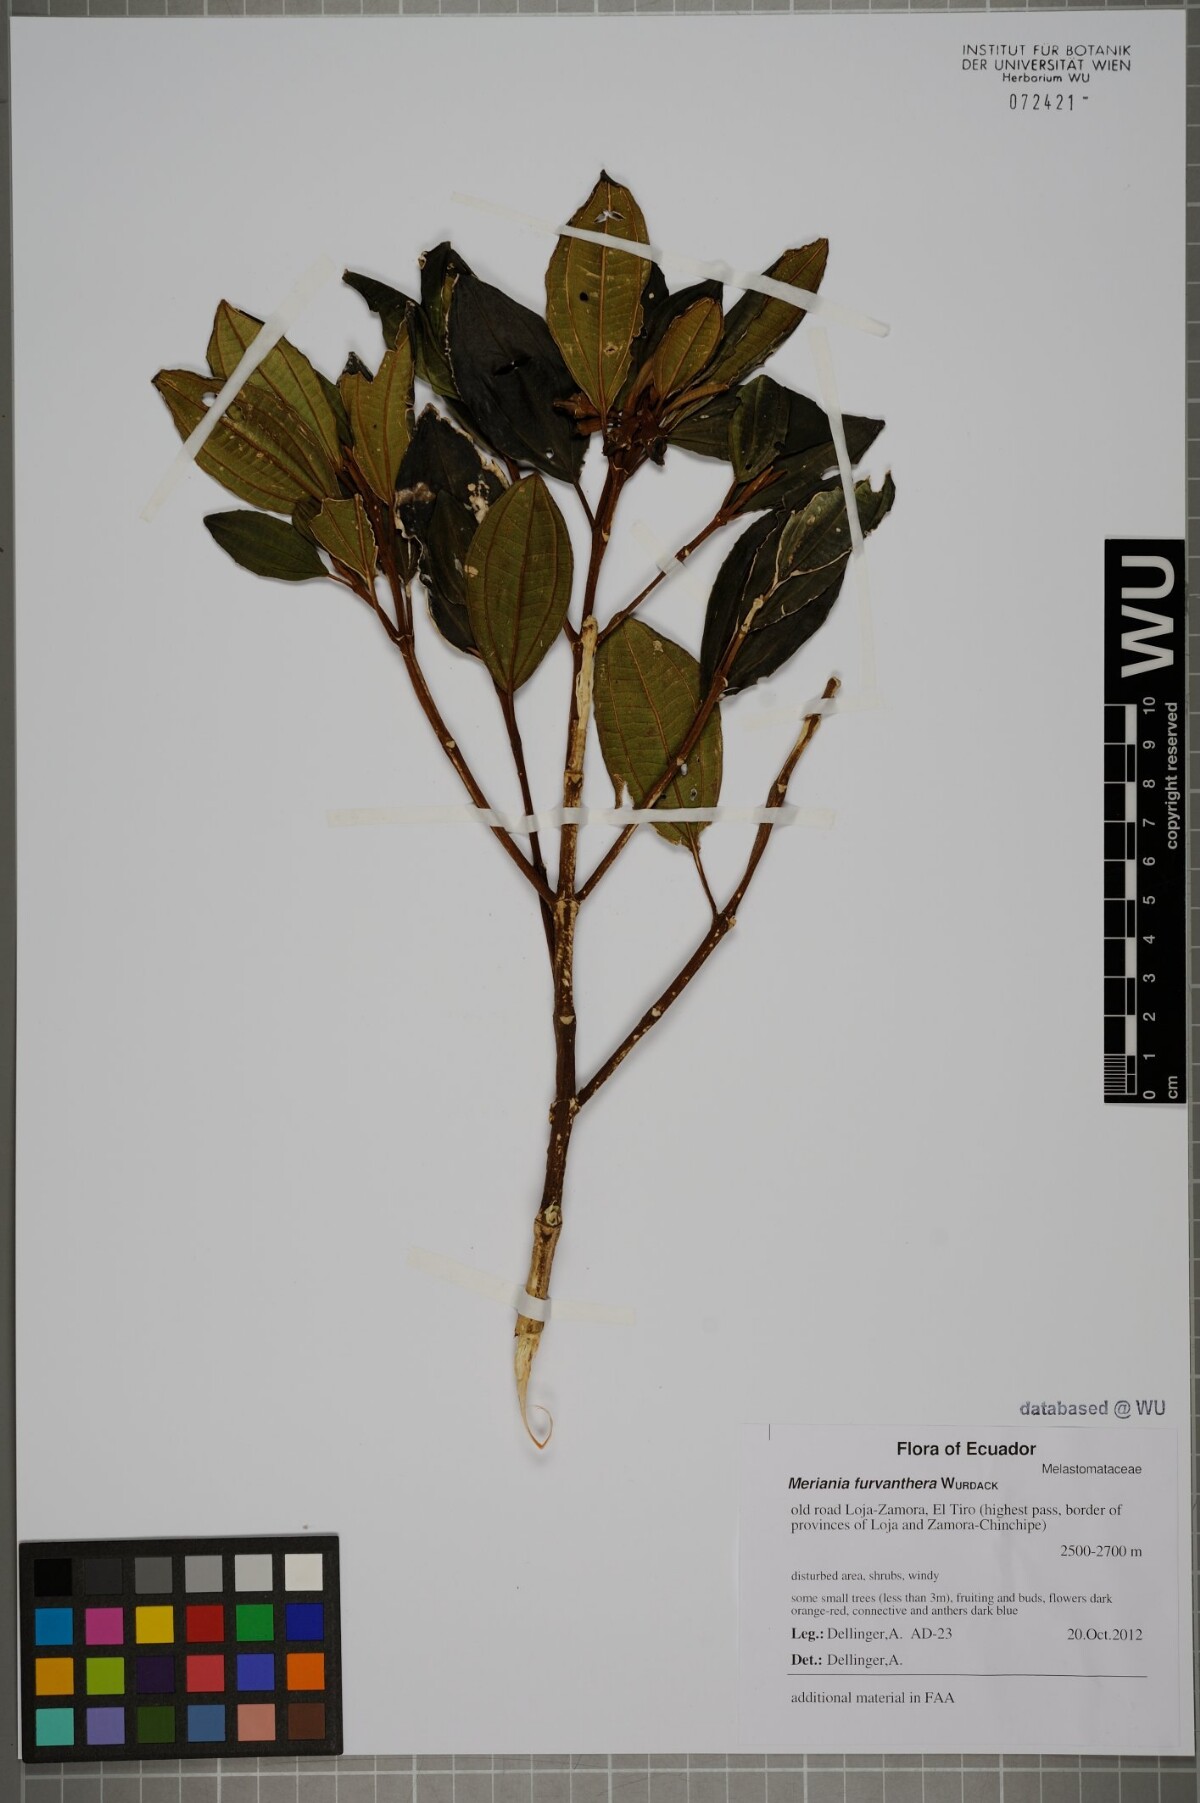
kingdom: Plantae
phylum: Tracheophyta
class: Magnoliopsida
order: Myrtales
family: Melastomataceae
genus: Meriania
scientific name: Meriania furvanthera
